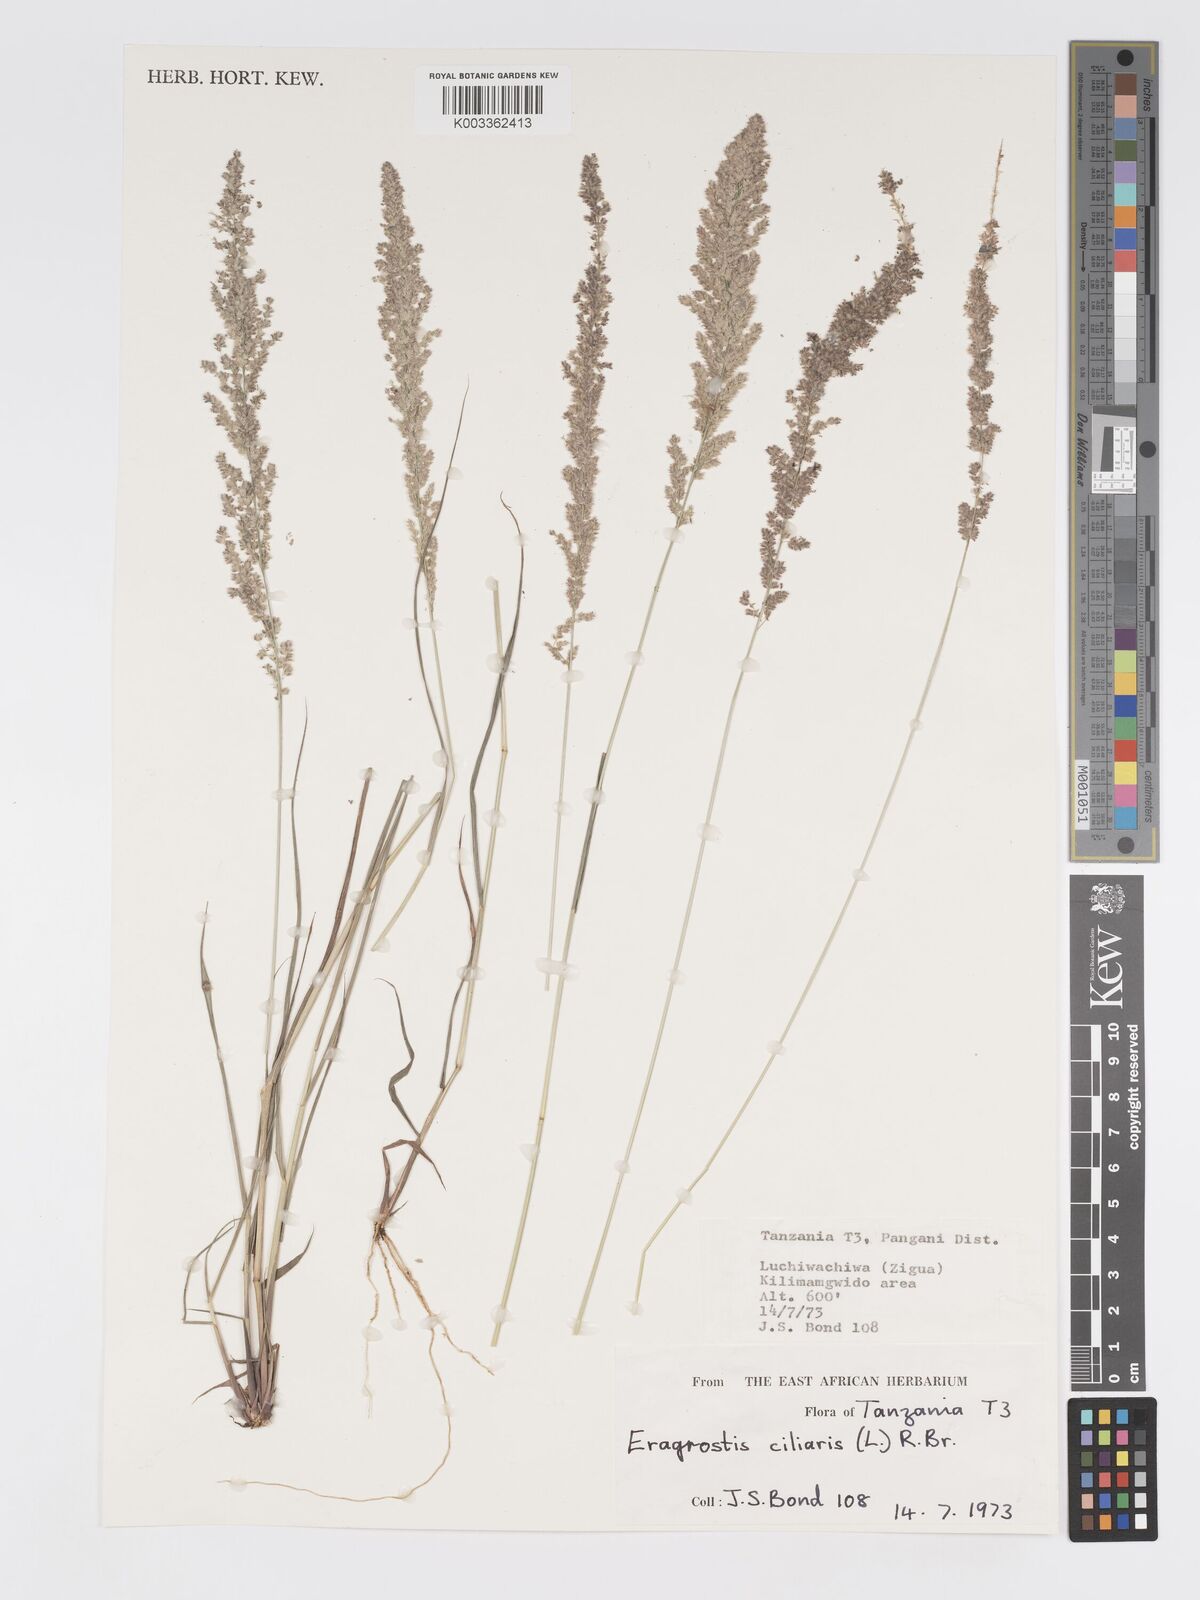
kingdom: Plantae
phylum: Tracheophyta
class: Liliopsida
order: Poales
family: Poaceae
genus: Eragrostis
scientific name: Eragrostis ciliaris
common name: Gophertail lovegrass
